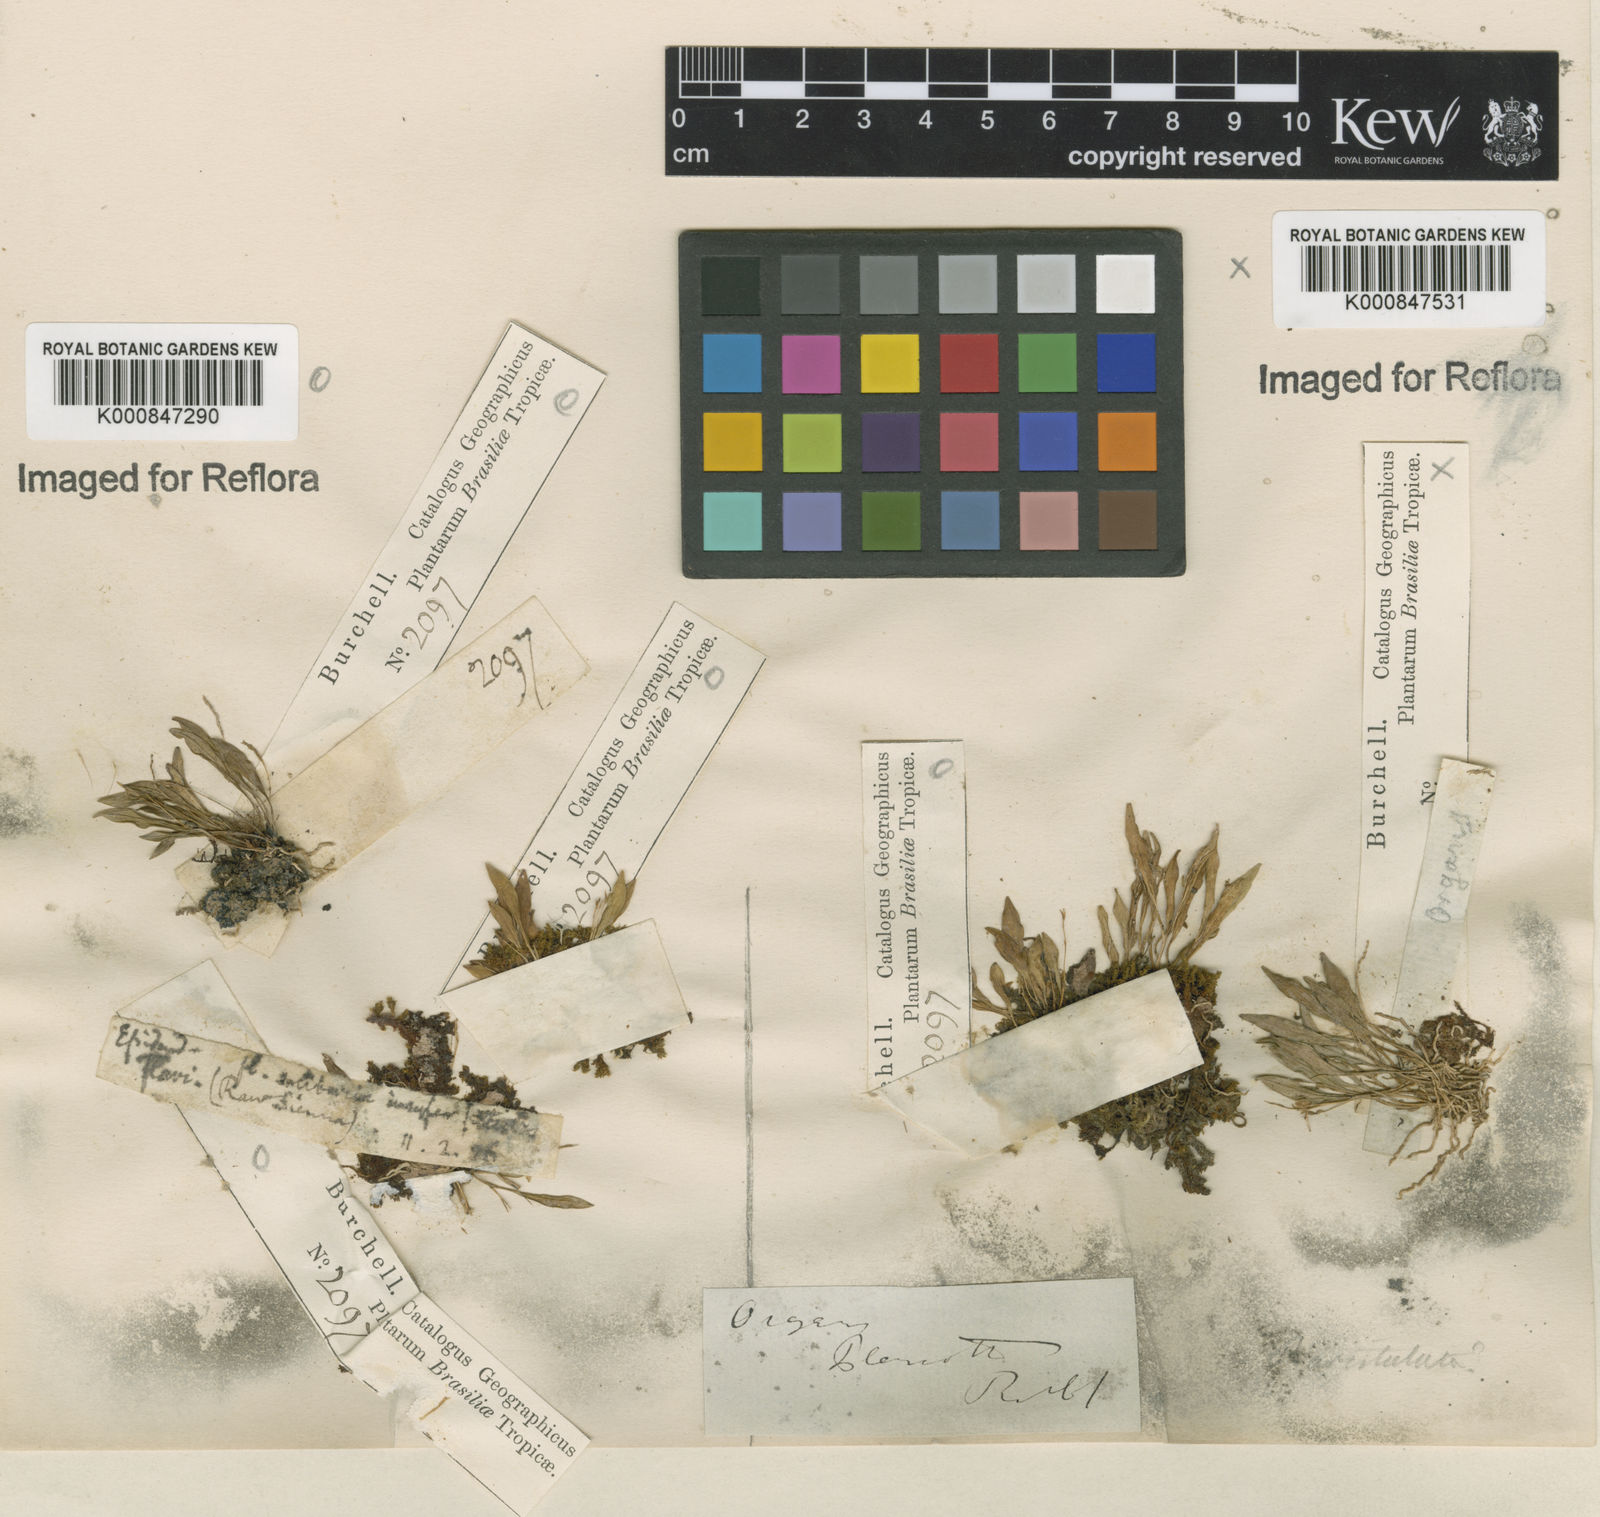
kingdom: Plantae
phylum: Tracheophyta
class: Liliopsida
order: Asparagales
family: Orchidaceae
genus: Anathallis
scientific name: Anathallis aristulata
